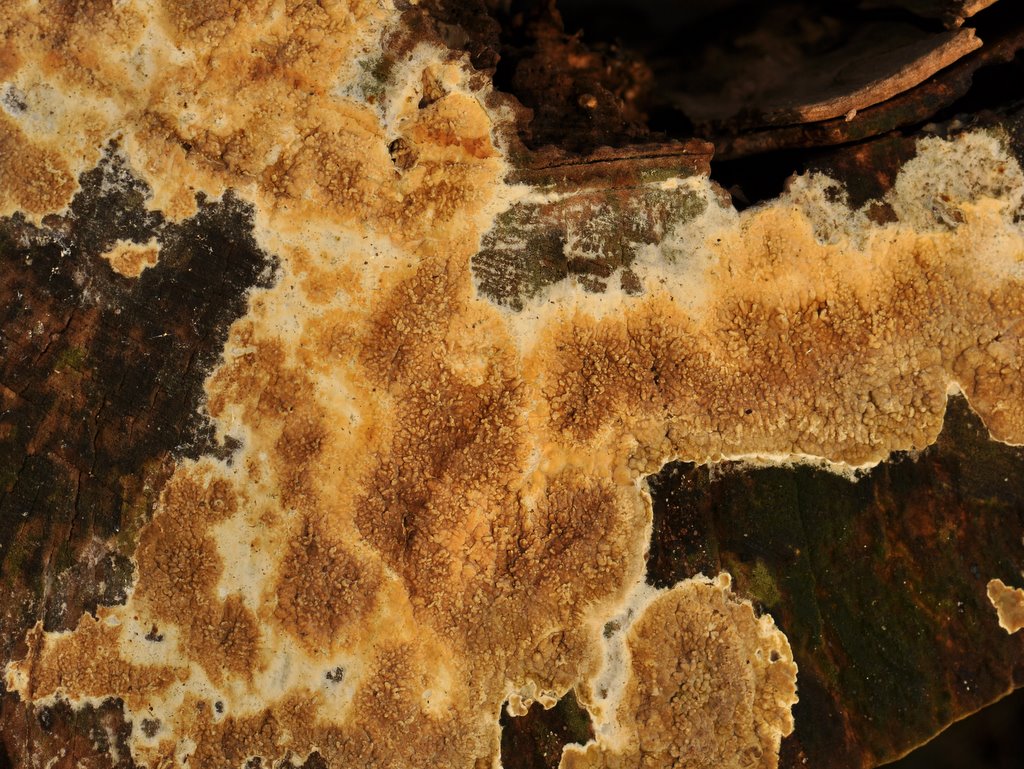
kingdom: Fungi
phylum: Basidiomycota
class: Agaricomycetes
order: Boletales
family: Coniophoraceae
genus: Coniophora
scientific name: Coniophora puteana
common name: gul tømmersvamp
